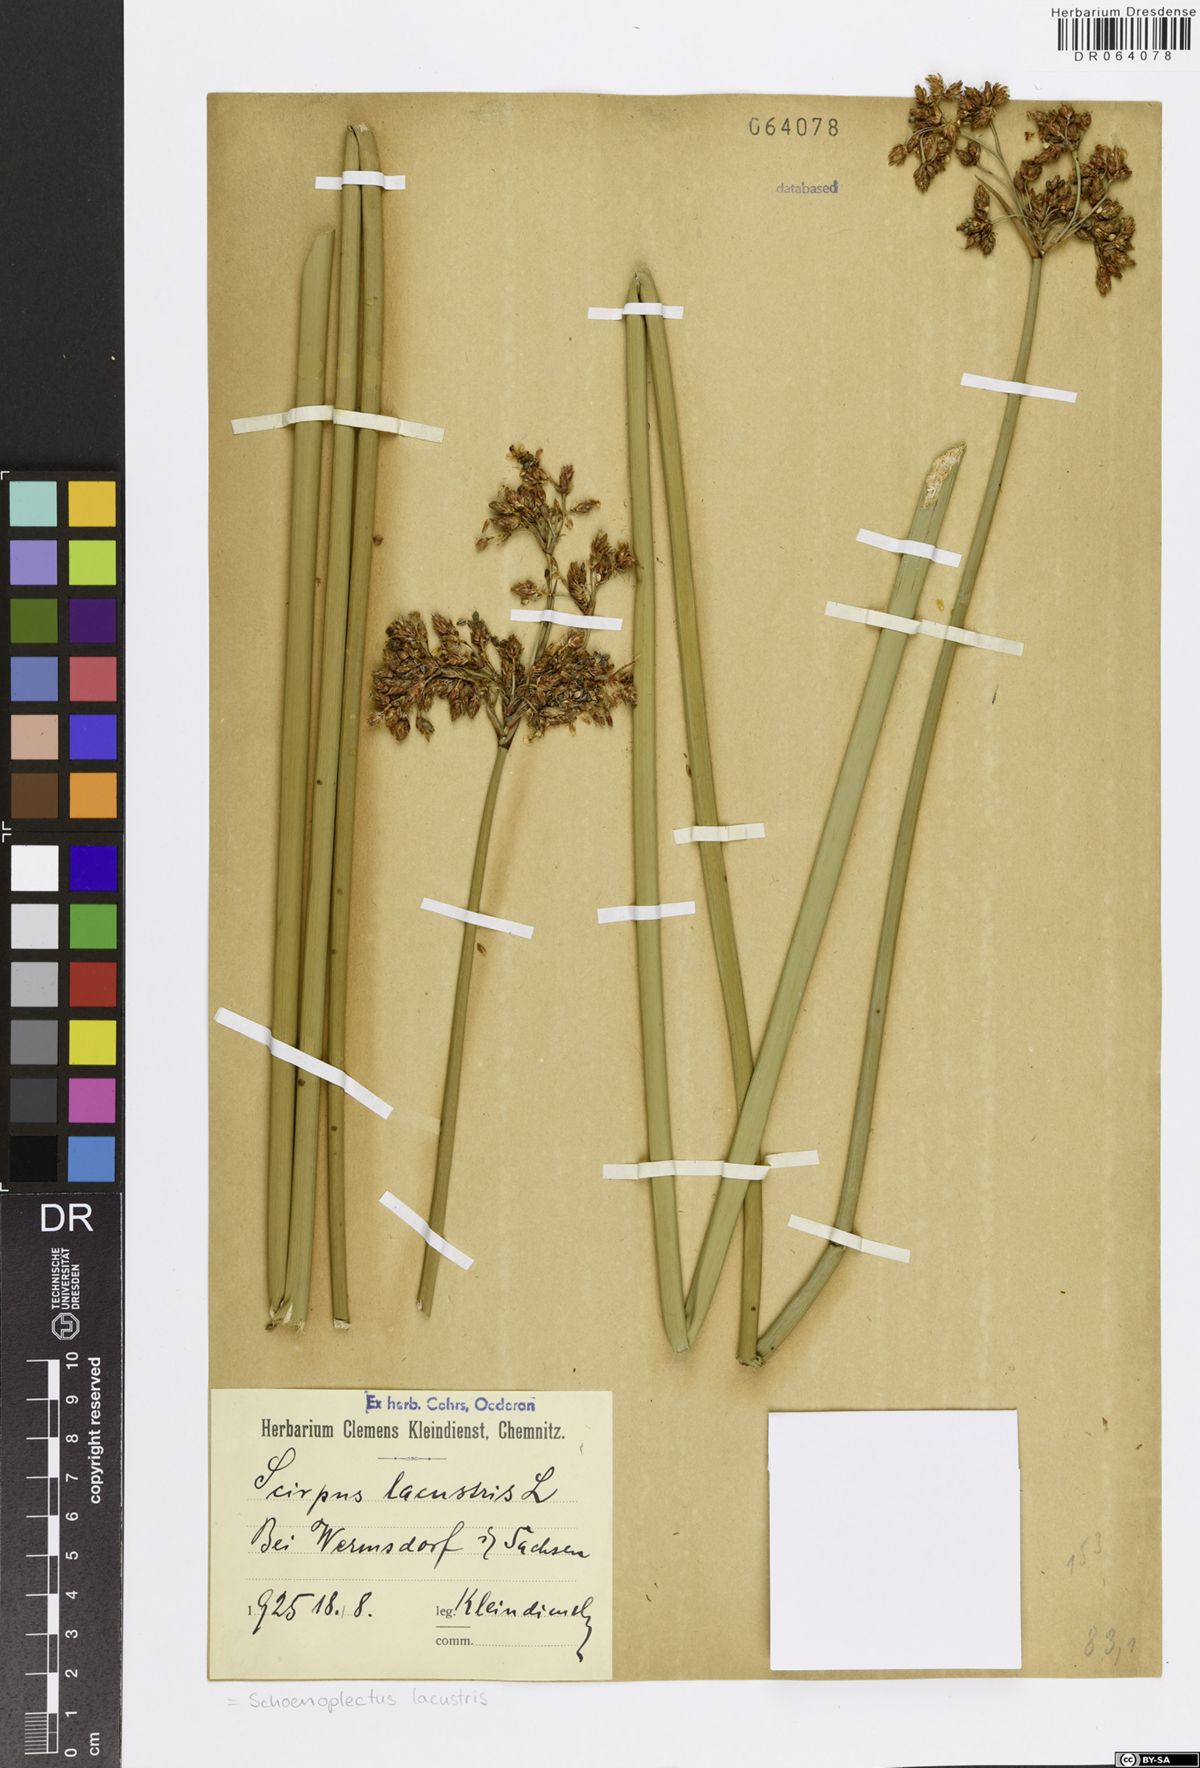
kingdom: Plantae
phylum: Tracheophyta
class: Liliopsida
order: Poales
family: Cyperaceae
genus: Schoenoplectus
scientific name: Schoenoplectus lacustris
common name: Common club-rush
